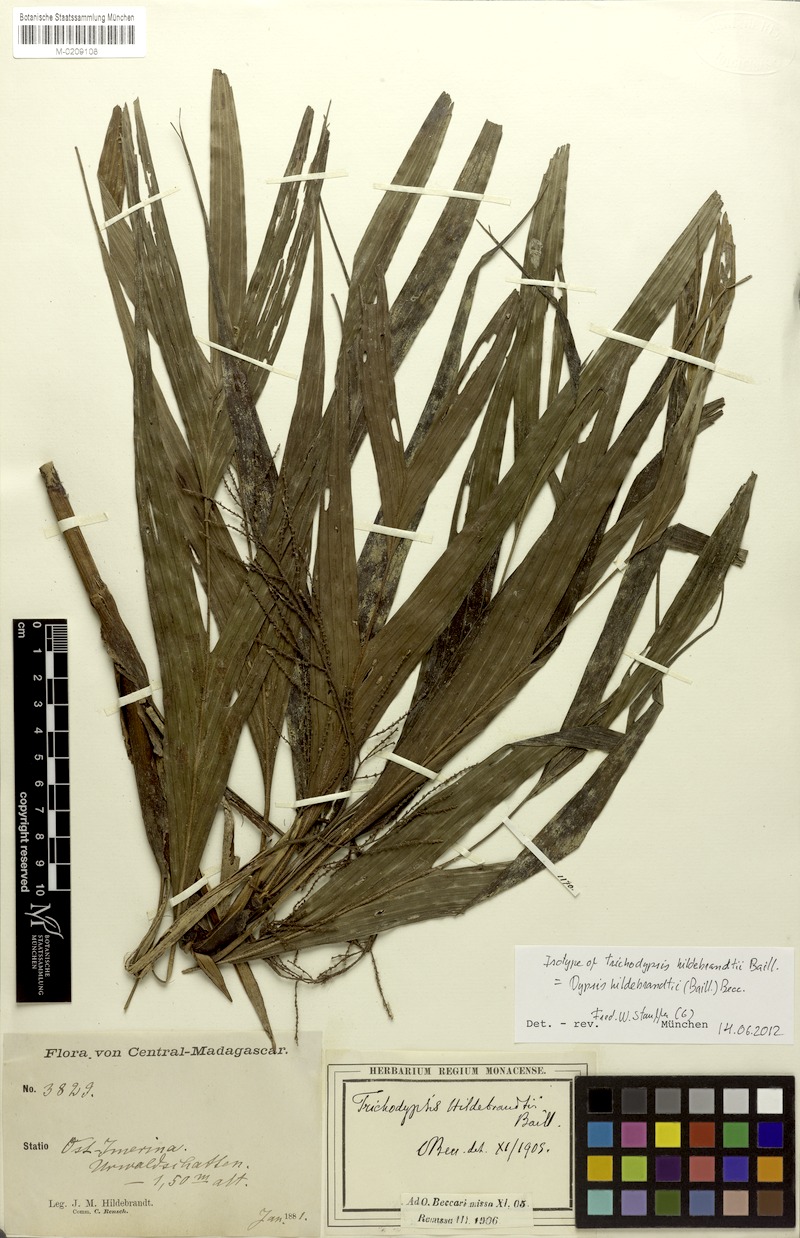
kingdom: Plantae
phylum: Tracheophyta
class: Liliopsida
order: Arecales
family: Arecaceae
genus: Dypsis
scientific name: Dypsis hildebrandtii
